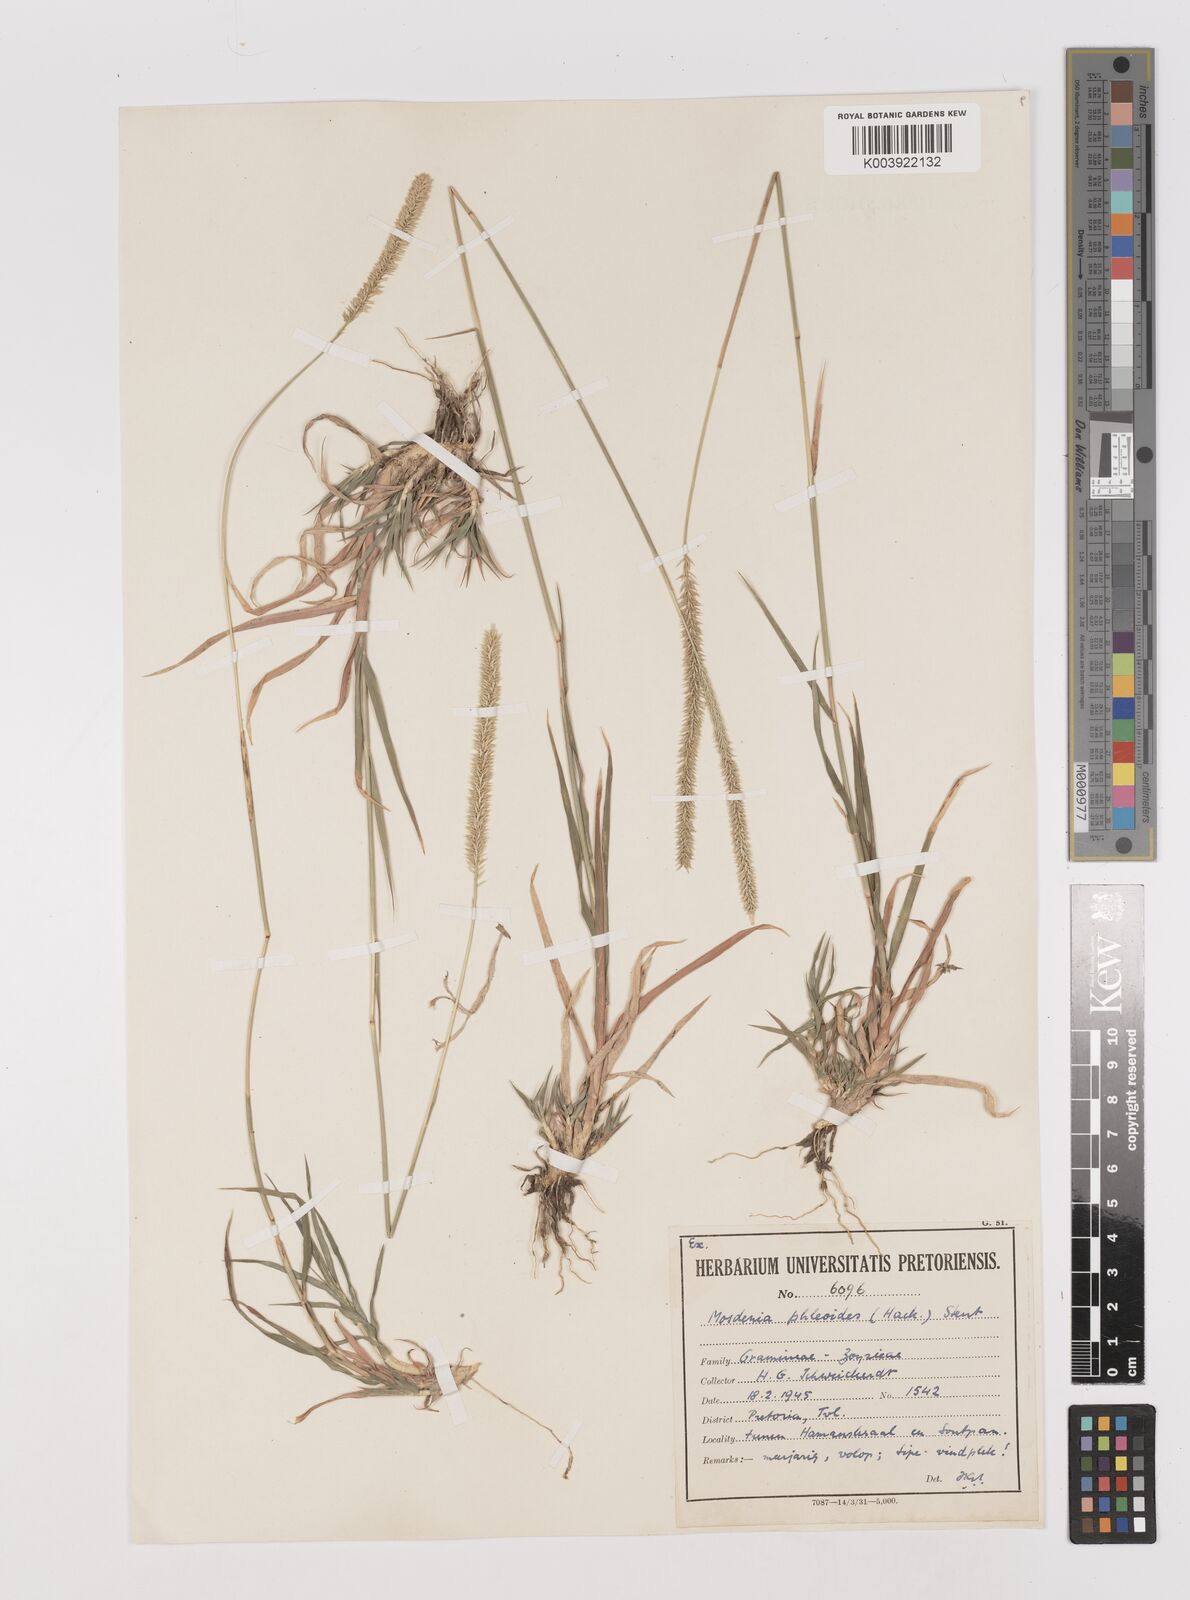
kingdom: Plantae
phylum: Tracheophyta
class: Liliopsida
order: Poales
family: Poaceae
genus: Mosdenia
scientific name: Mosdenia leptostachys
